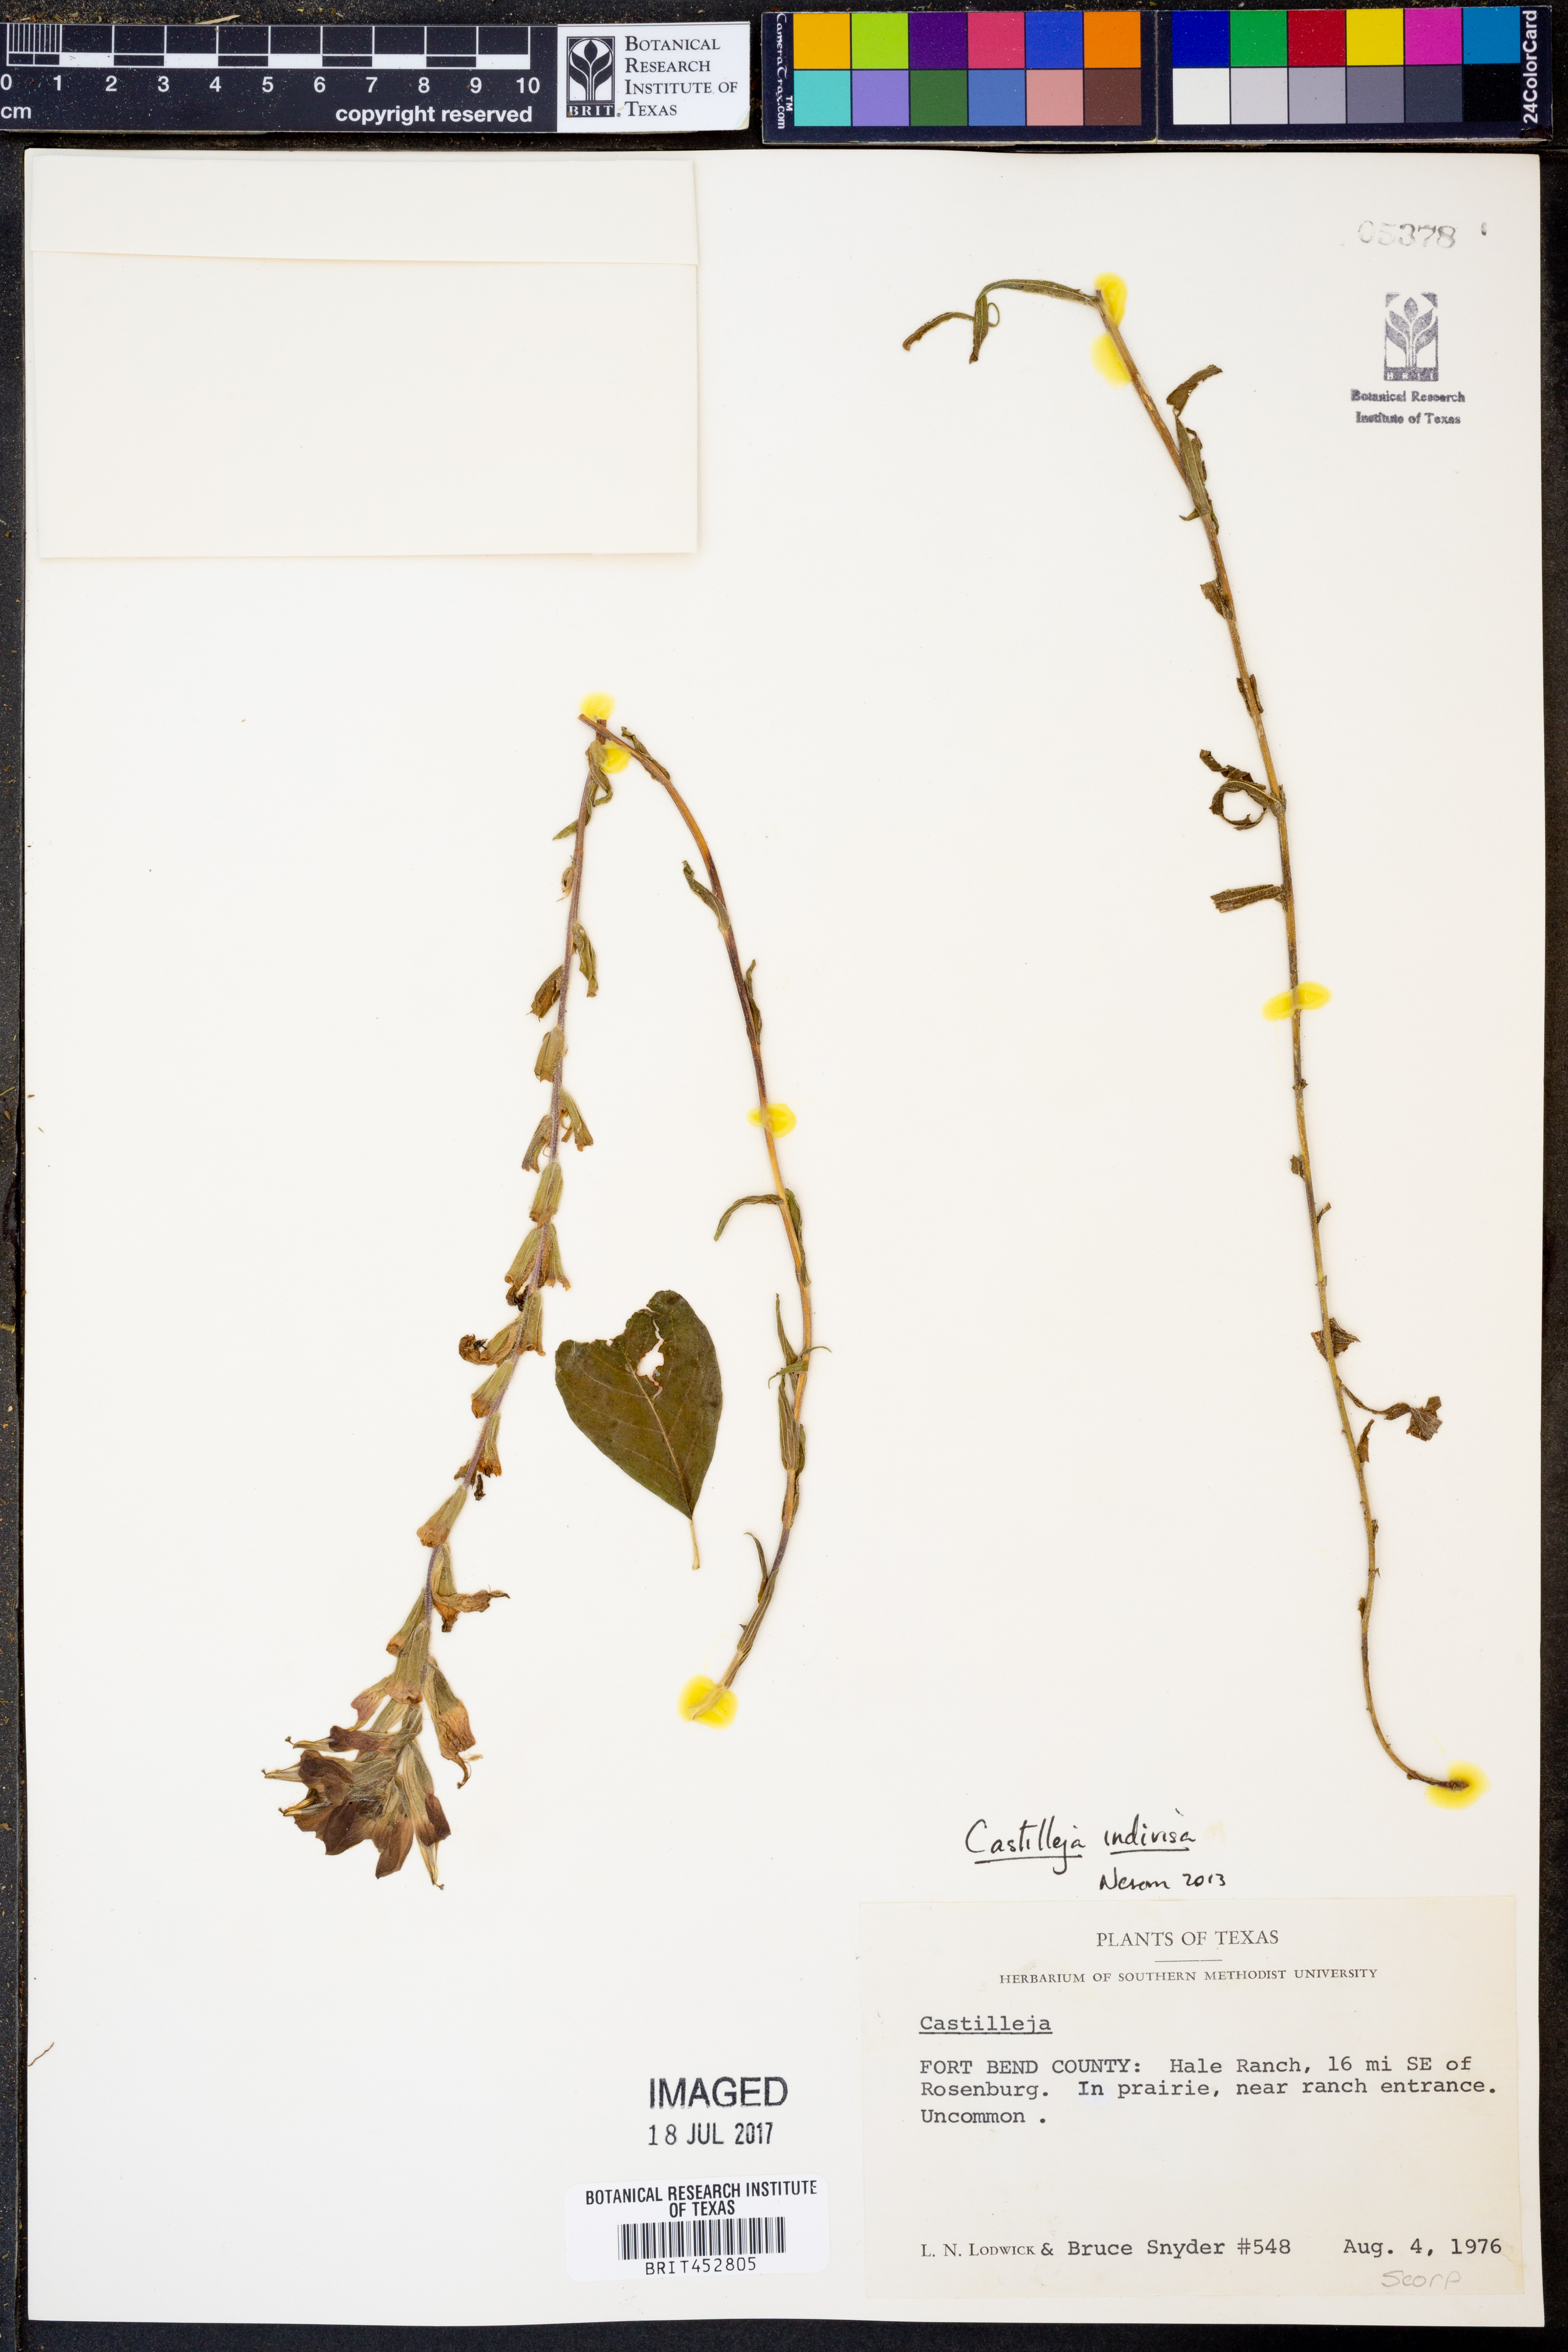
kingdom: Plantae
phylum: Tracheophyta
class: Magnoliopsida
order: Lamiales
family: Orobanchaceae
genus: Castilleja
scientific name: Castilleja indivisa
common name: Texas paintbrush
